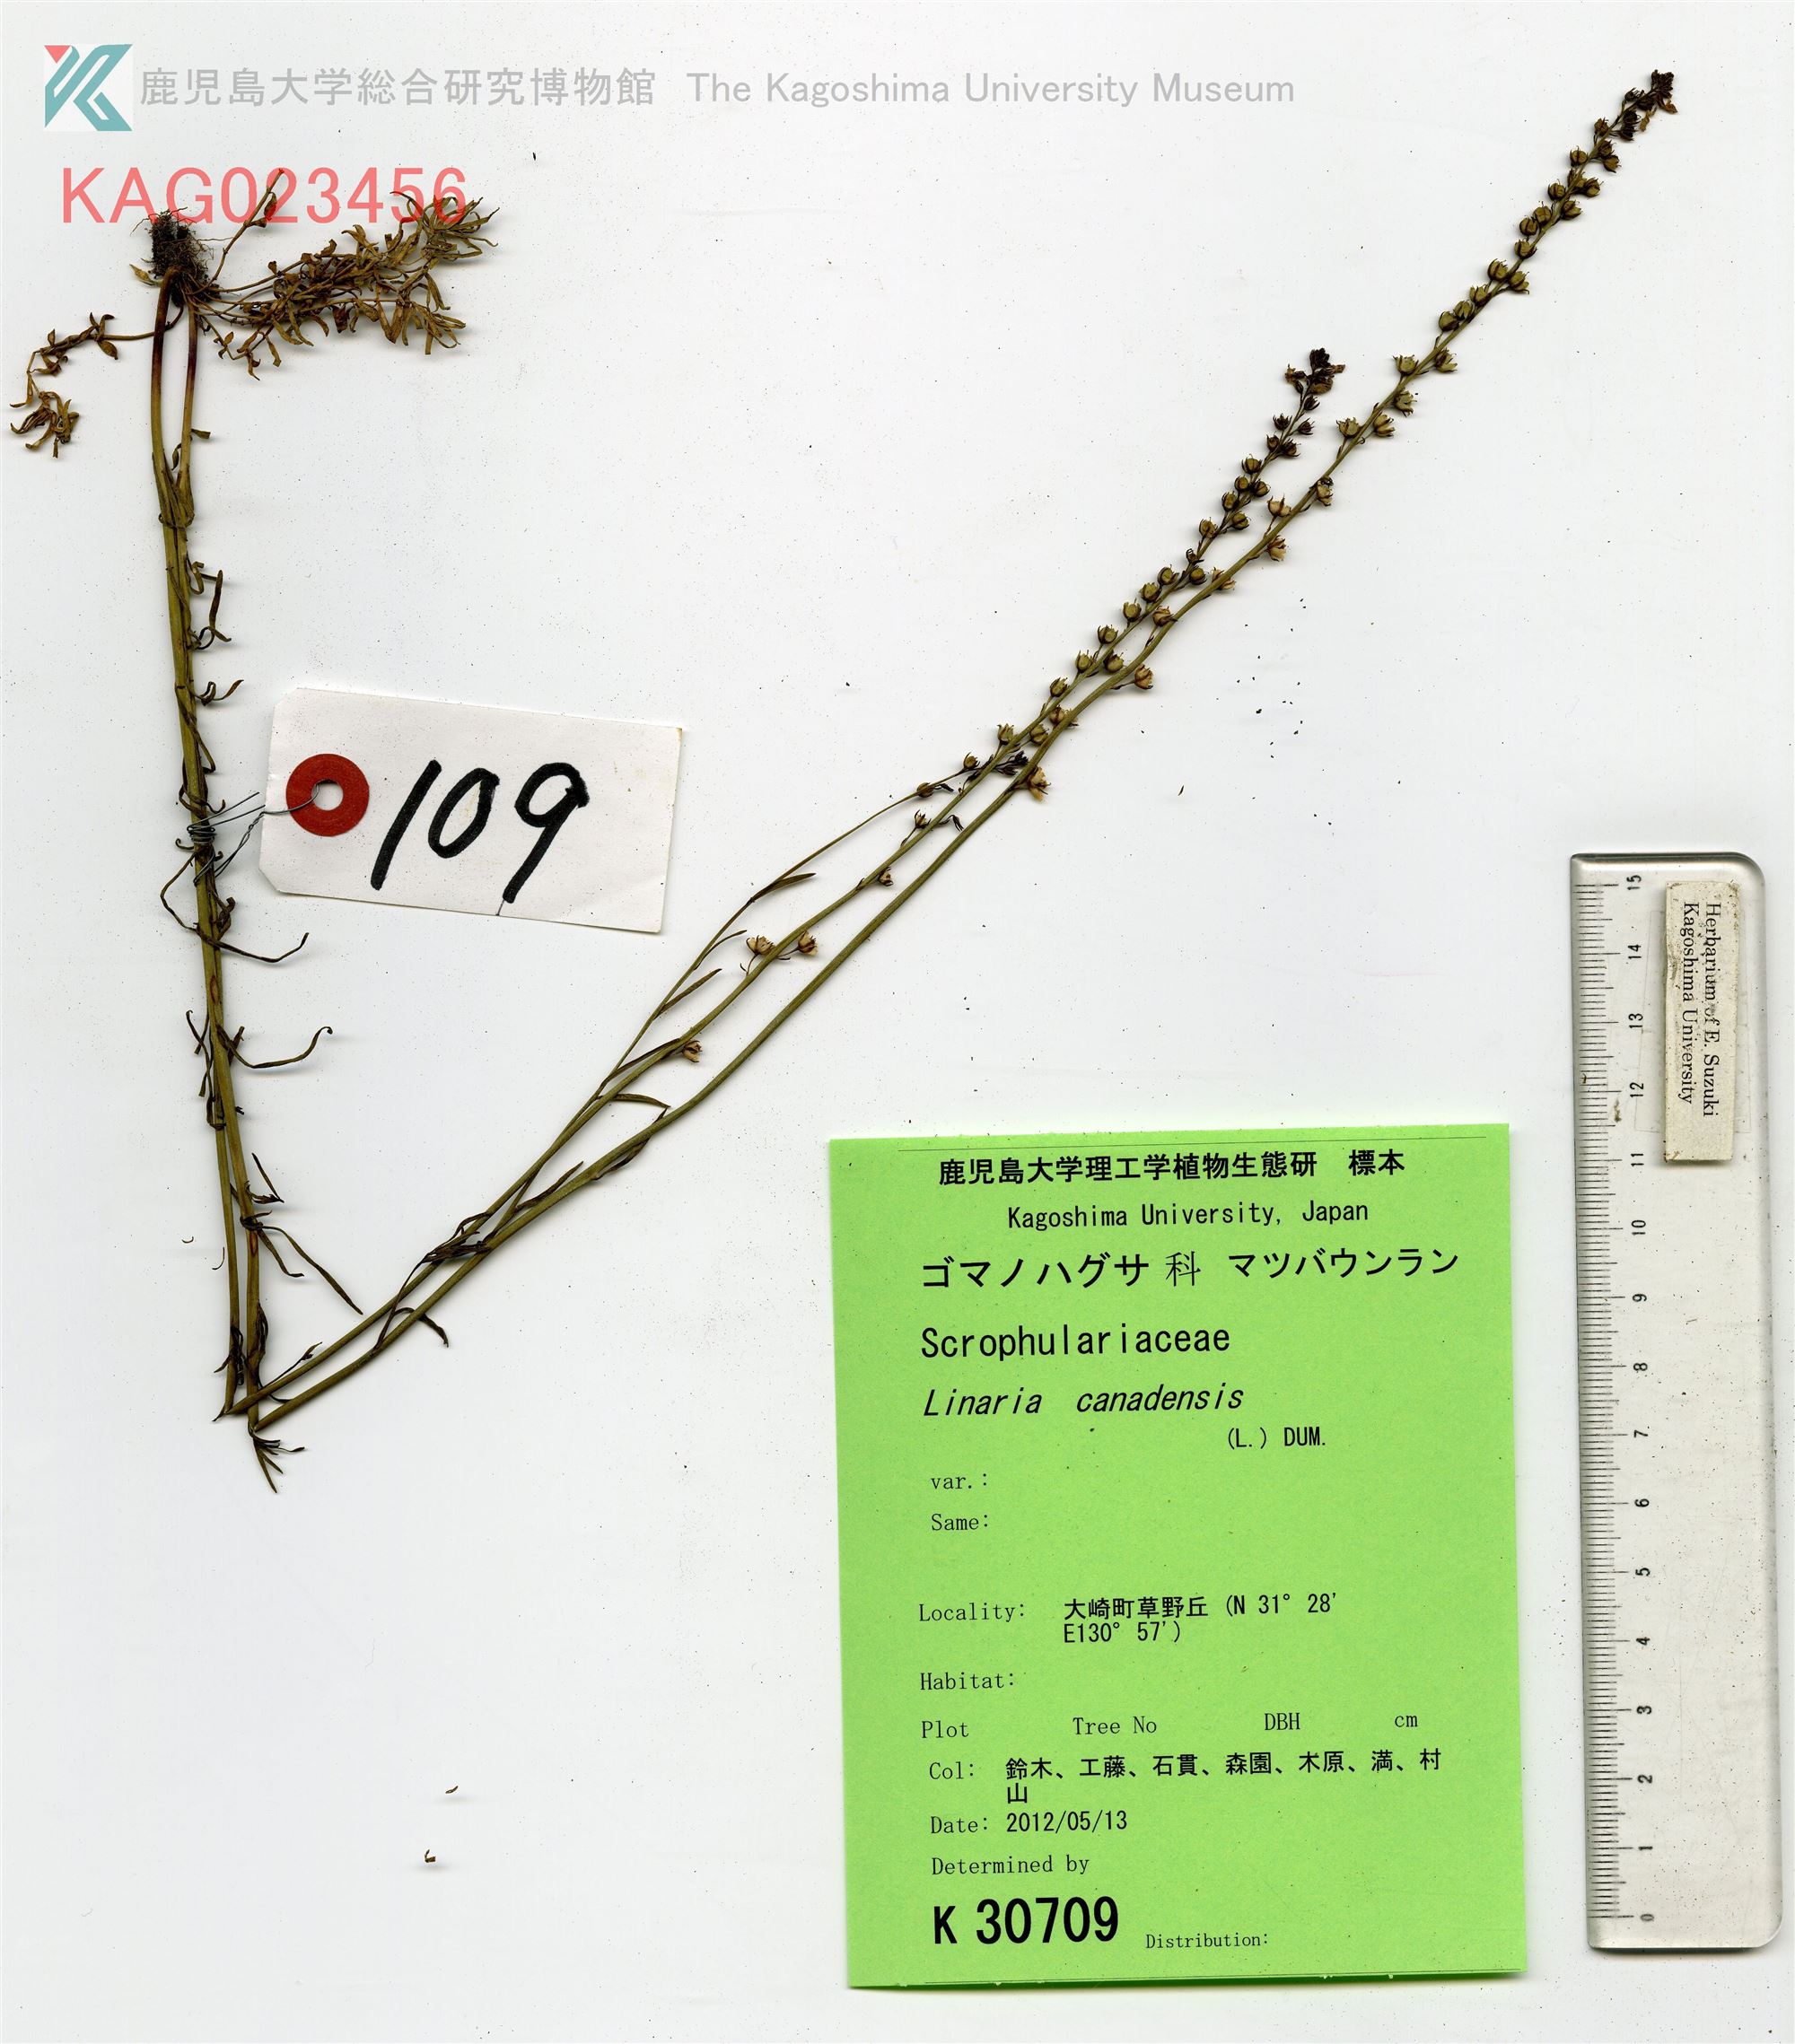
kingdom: Plantae
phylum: Tracheophyta
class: Magnoliopsida
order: Lamiales
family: Plantaginaceae
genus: Nuttallanthus
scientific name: Nuttallanthus canadensis
